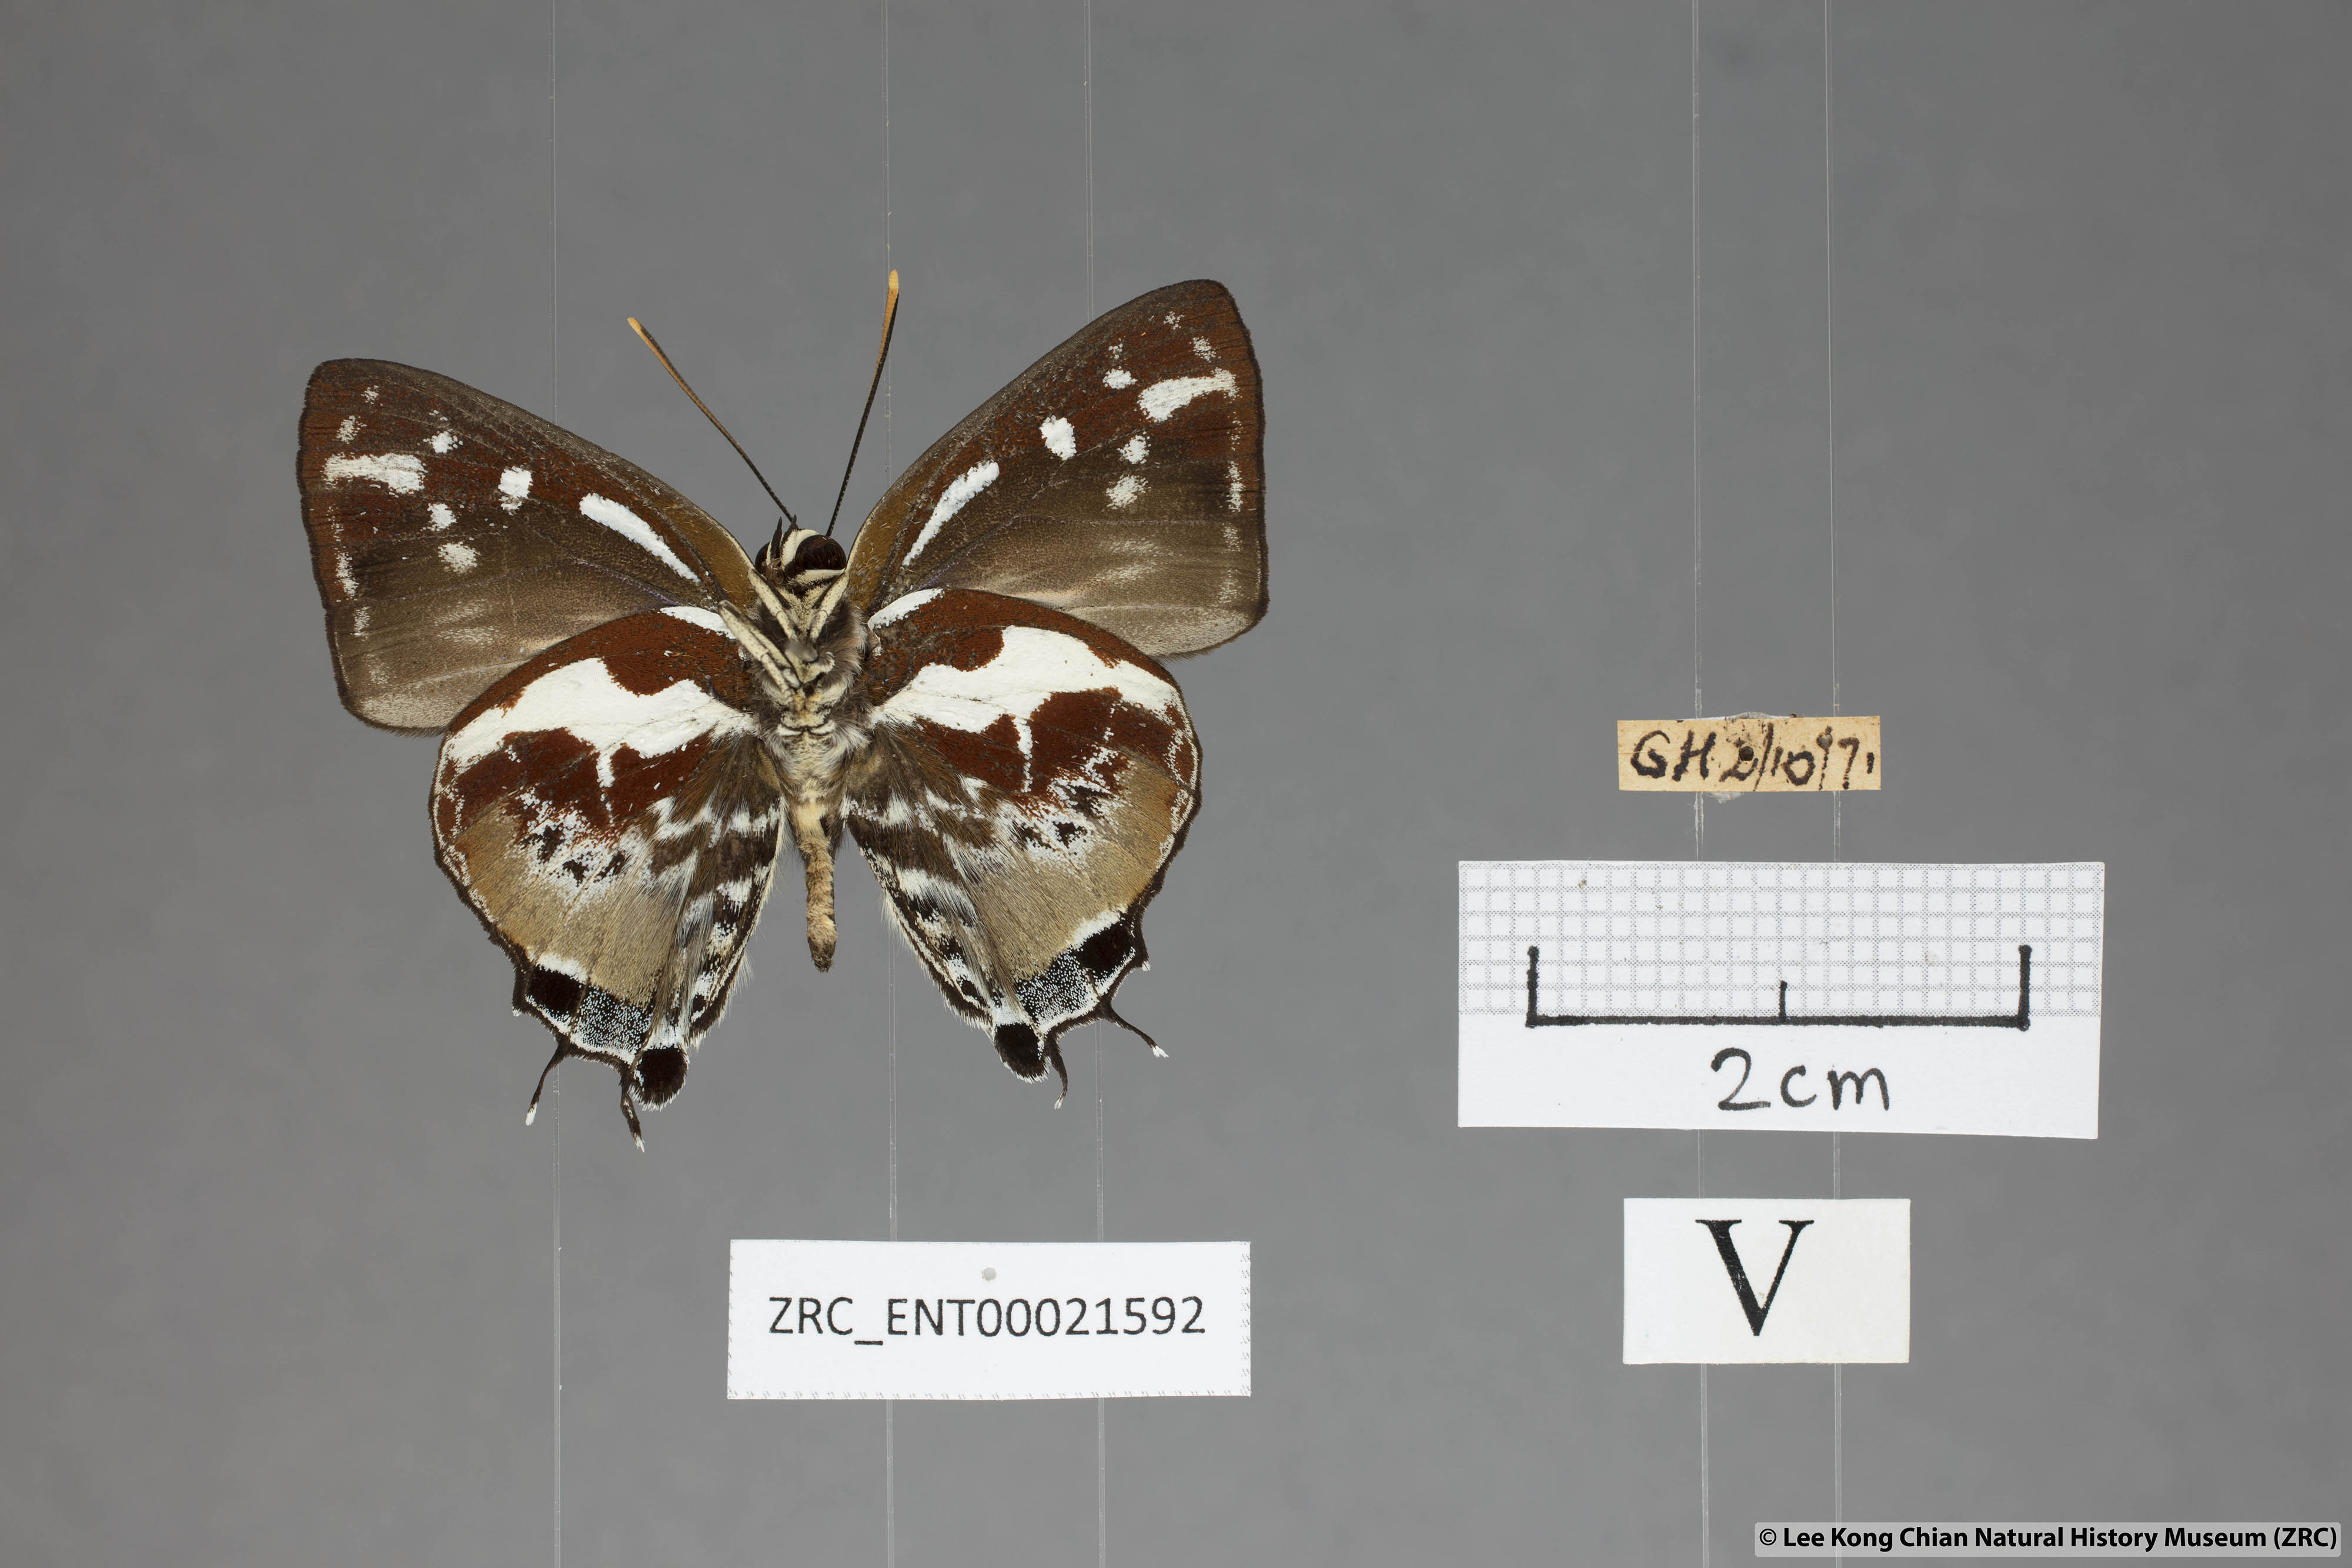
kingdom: Animalia
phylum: Arthropoda
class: Insecta
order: Lepidoptera
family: Lycaenidae
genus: Iraota
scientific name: Iraota rochana
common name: Scarce silverstreak blue
